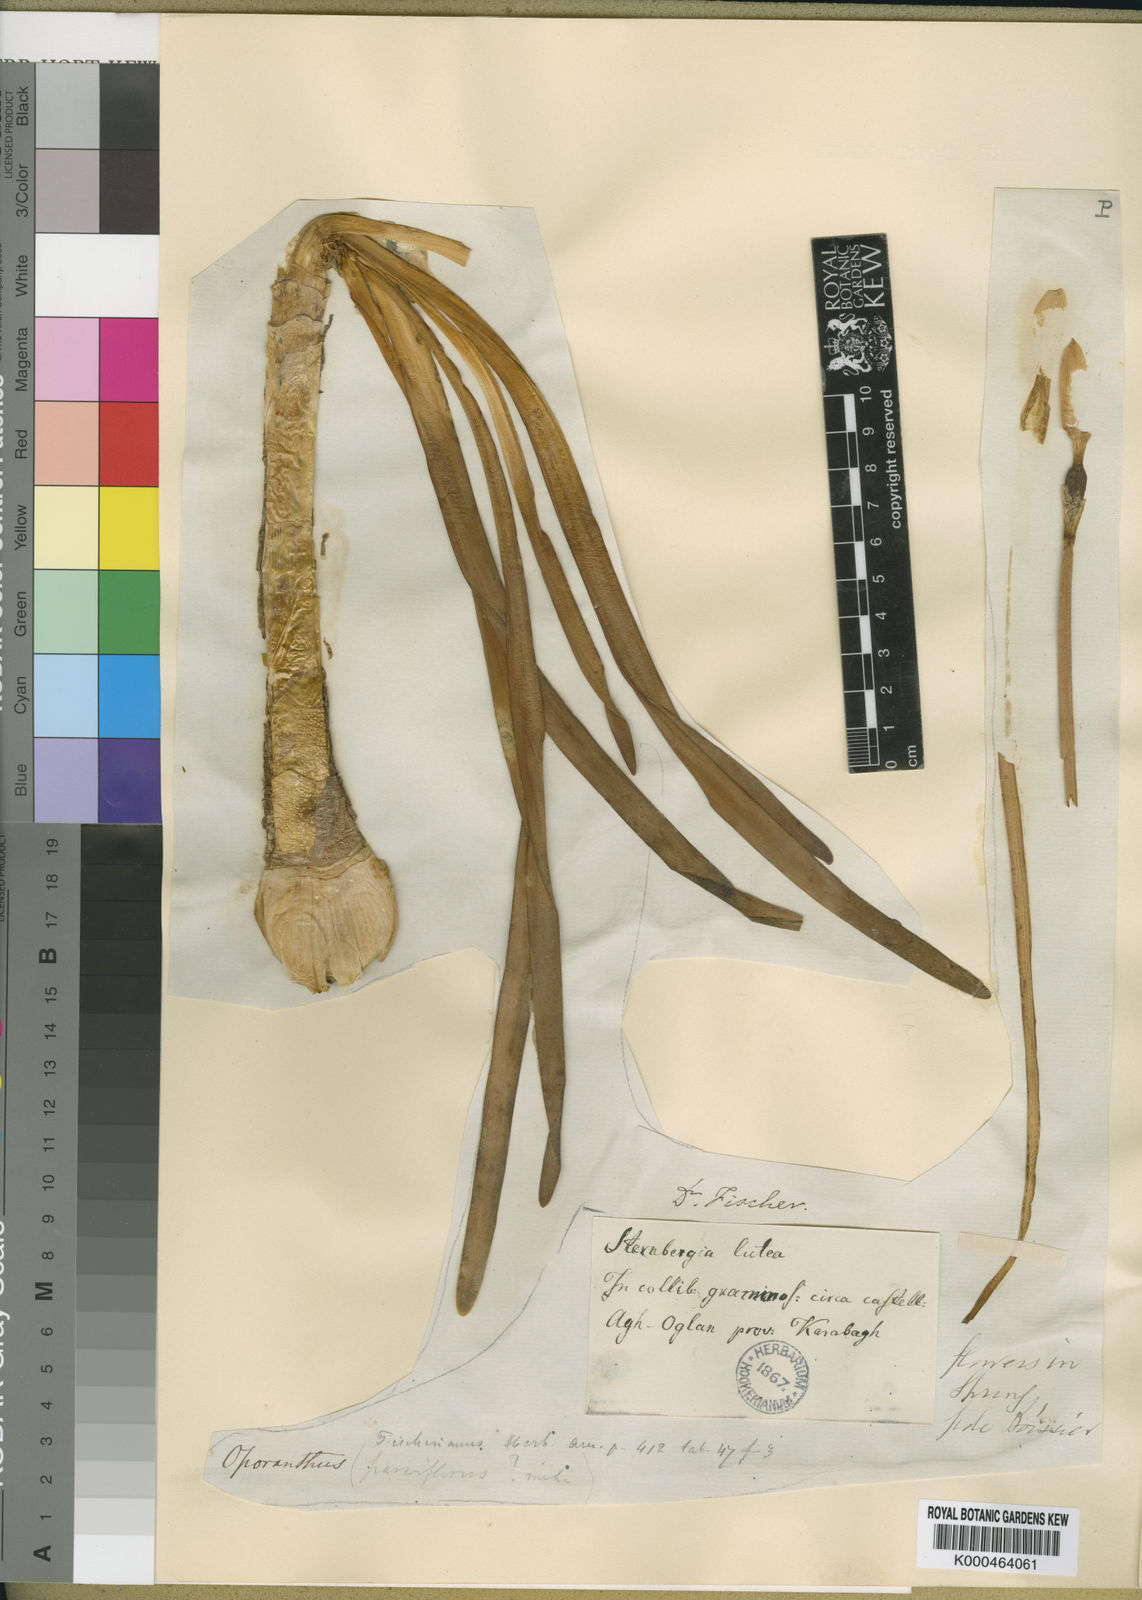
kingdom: Plantae
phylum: Tracheophyta
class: Liliopsida
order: Asparagales
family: Amaryllidaceae
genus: Sternbergia
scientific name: Sternbergia vernalis
